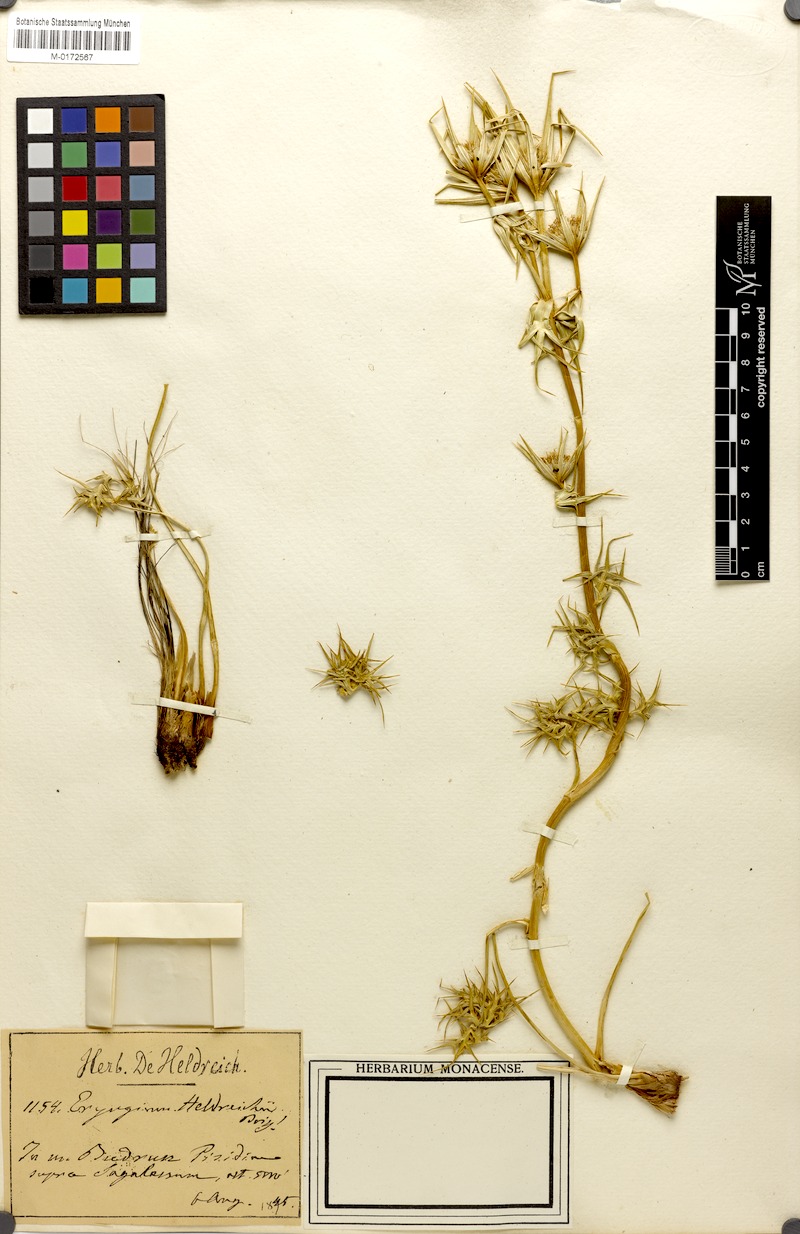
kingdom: Plantae
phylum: Tracheophyta
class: Magnoliopsida
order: Apiales
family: Apiaceae
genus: Eryngium
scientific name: Eryngium heldreichii
